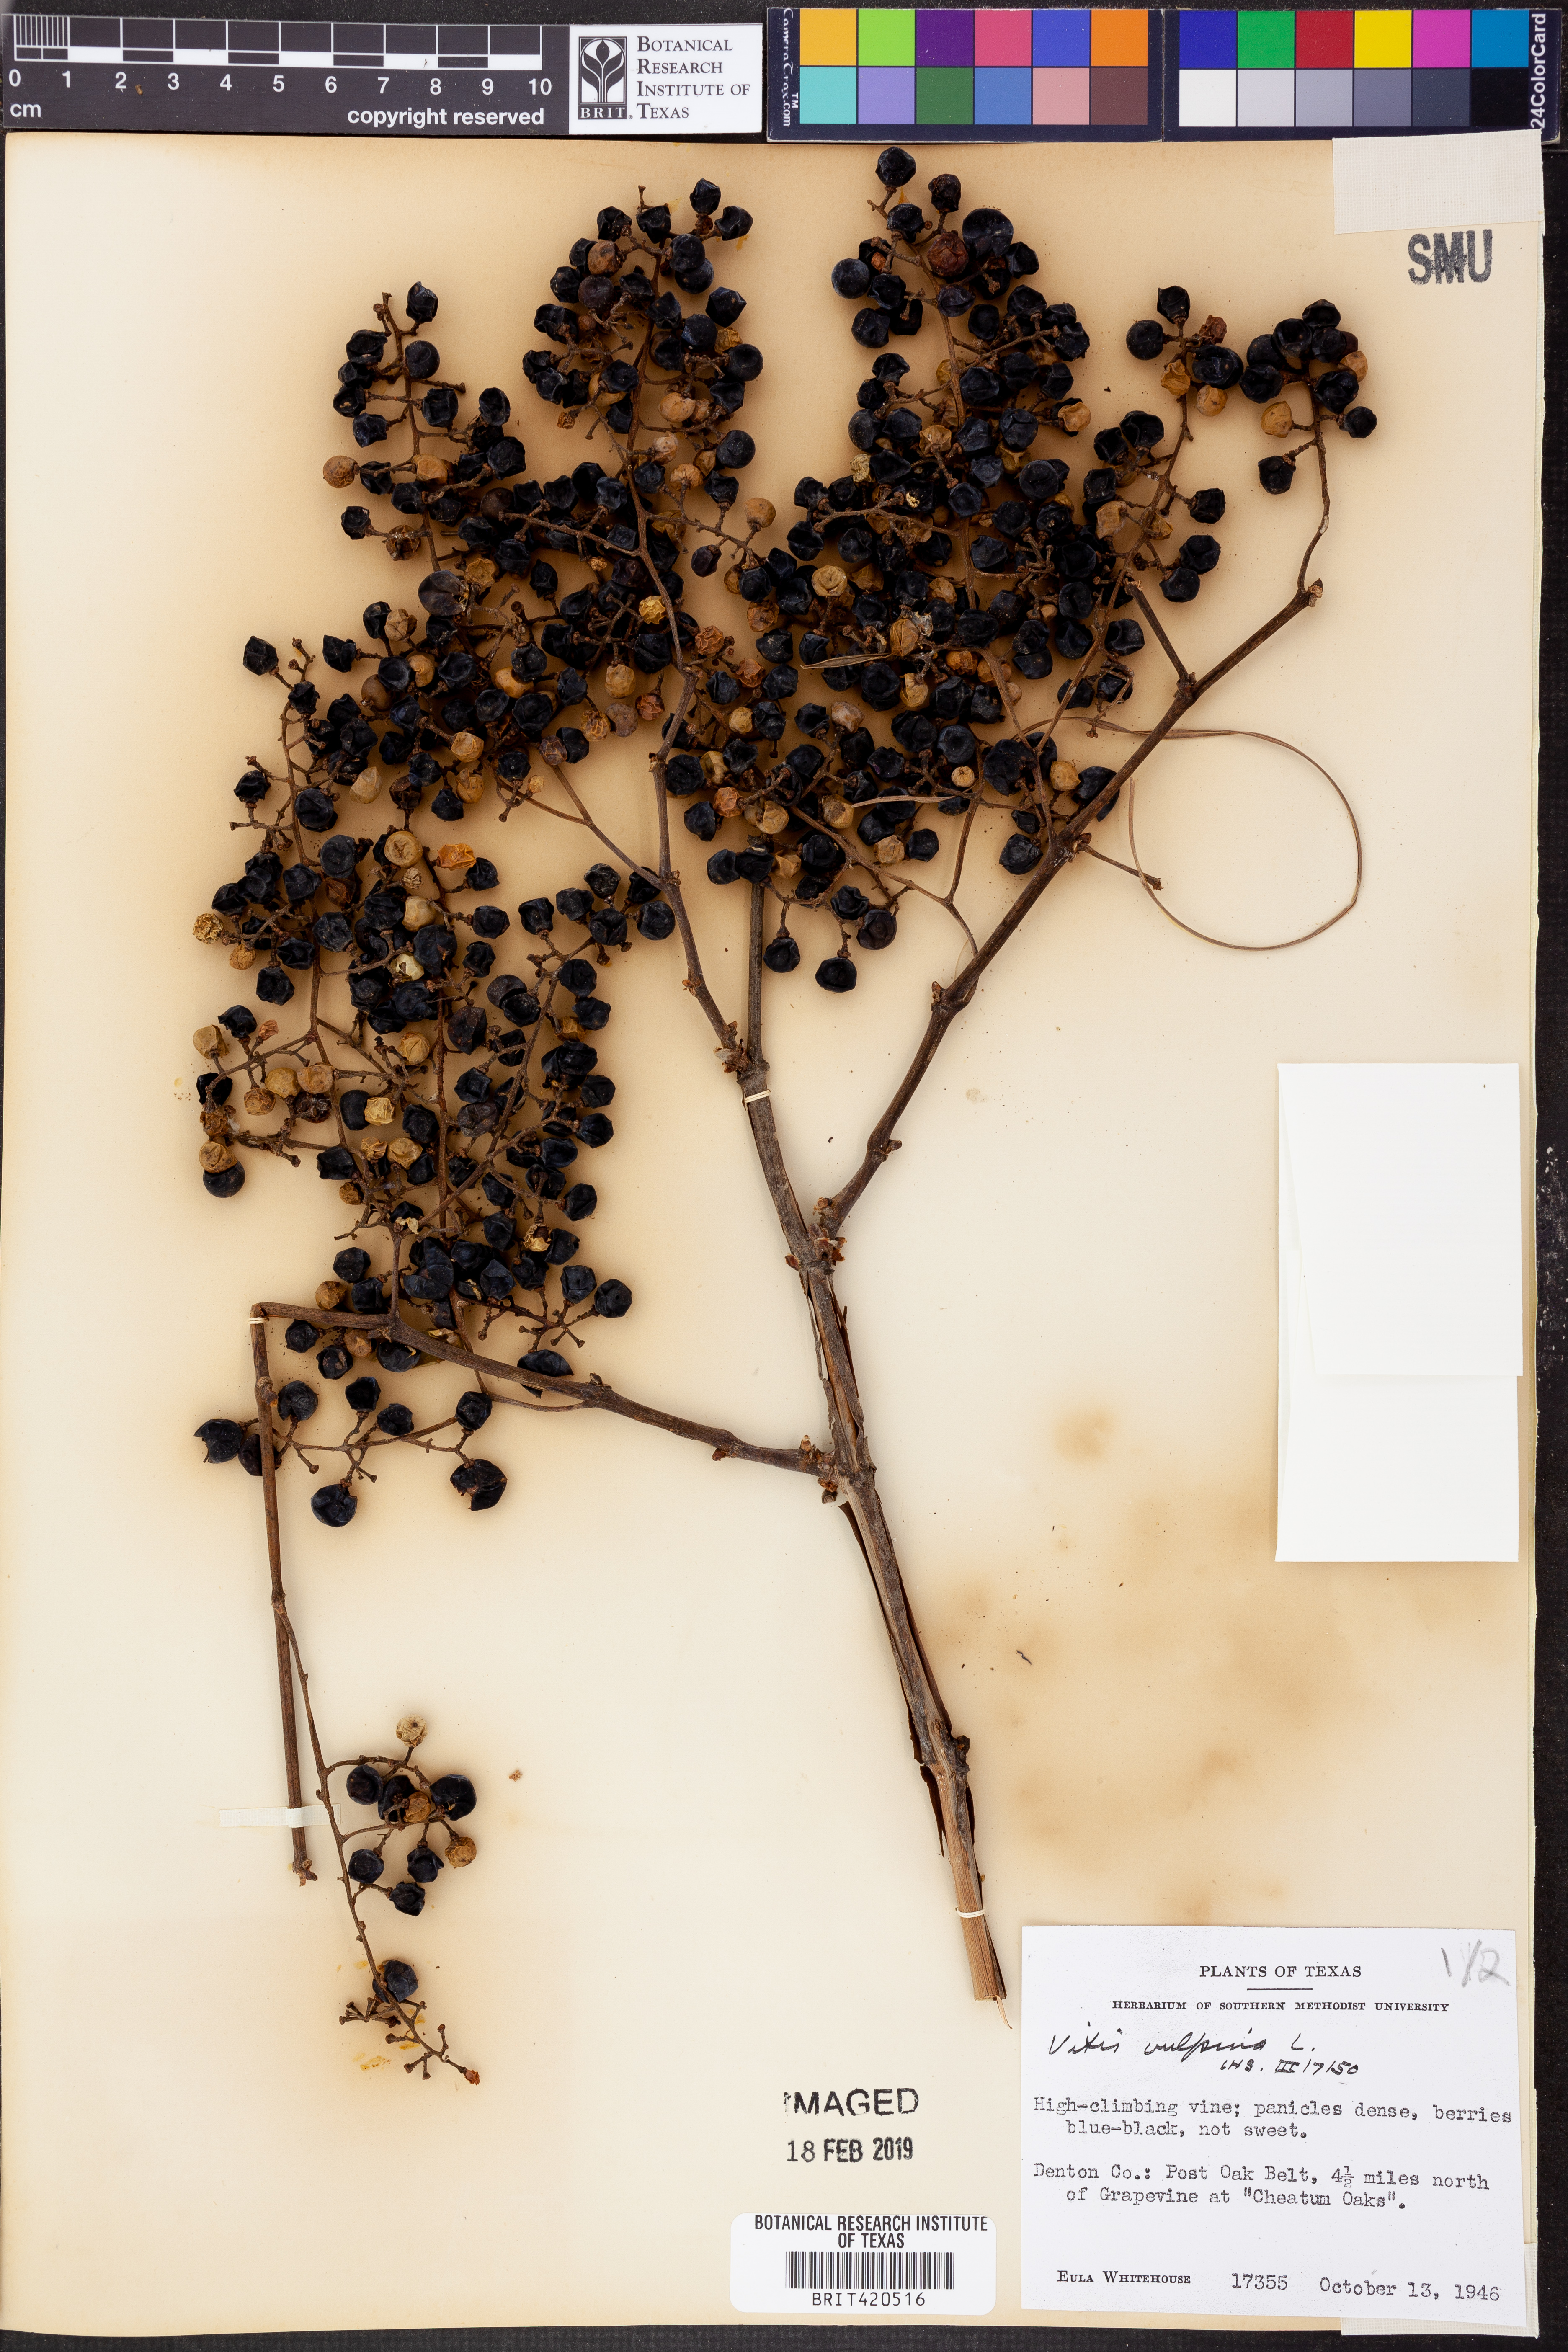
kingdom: Plantae
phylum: Tracheophyta
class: Magnoliopsida
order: Vitales
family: Vitaceae
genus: Vitis
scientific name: Vitis vulpina
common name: Frost grape
